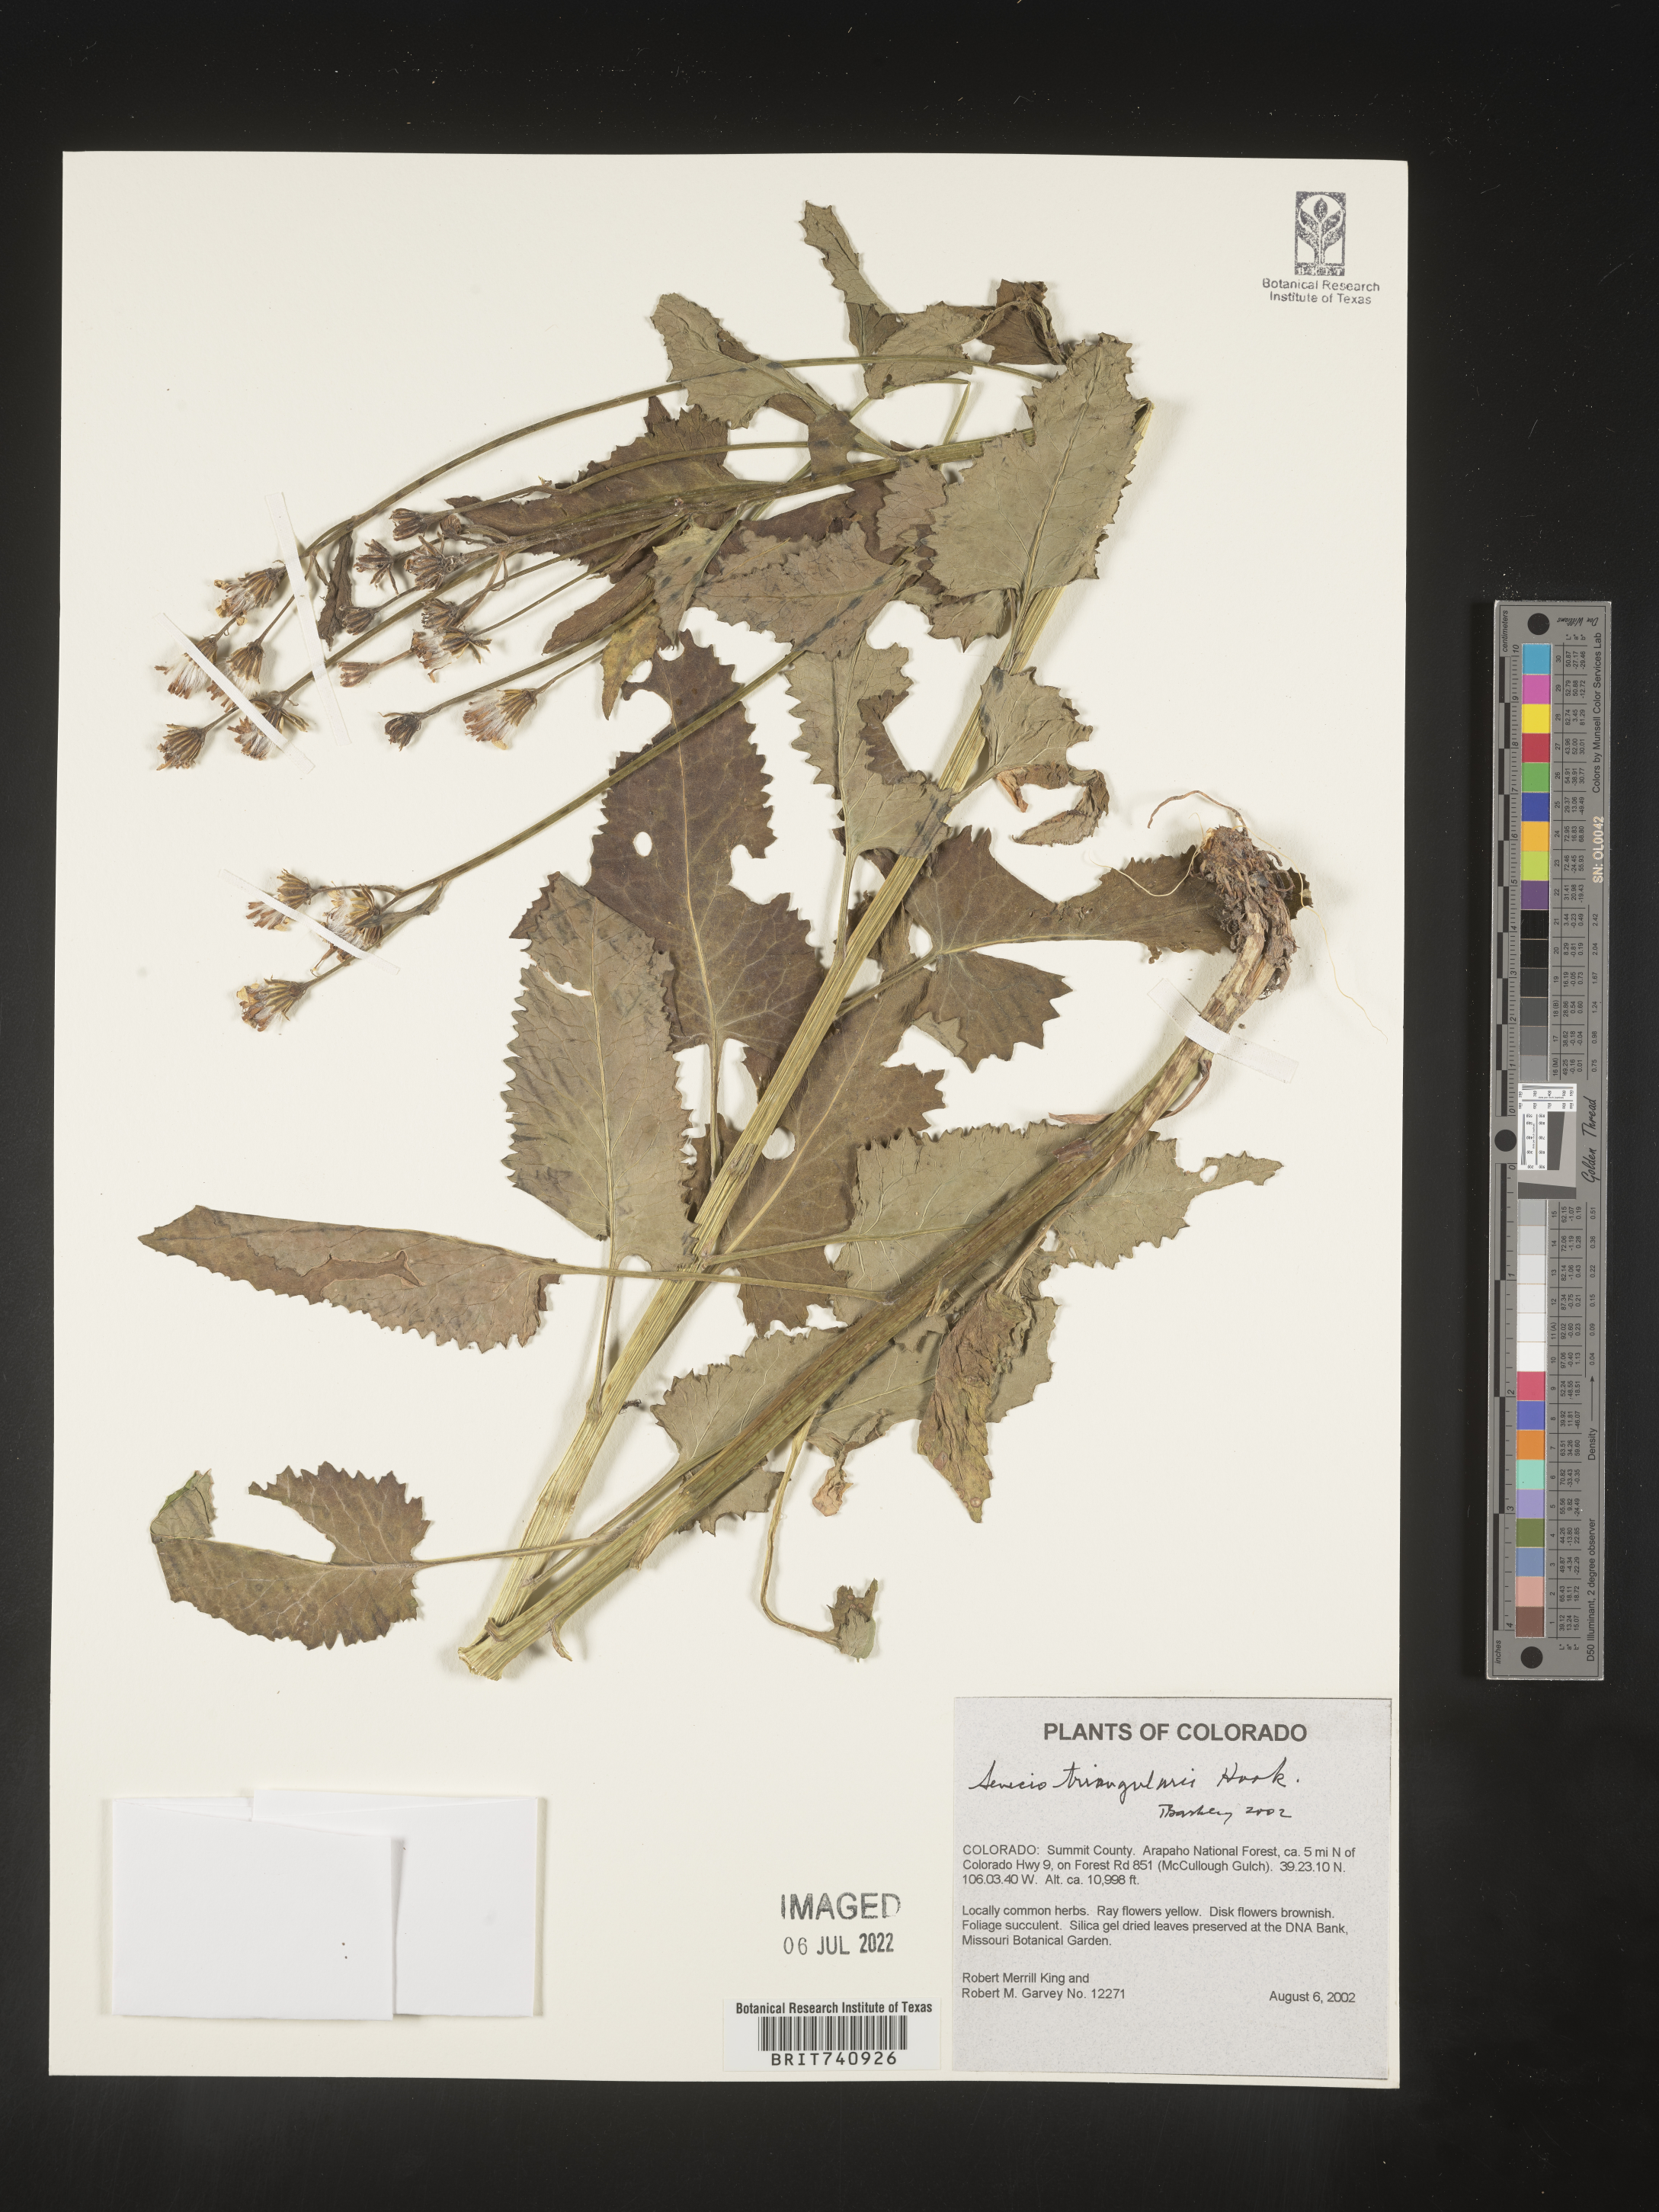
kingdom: Plantae
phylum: Tracheophyta
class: Magnoliopsida
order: Asterales
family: Asteraceae
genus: Senecio
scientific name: Senecio triangularis
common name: Arrowleaf butterweed
